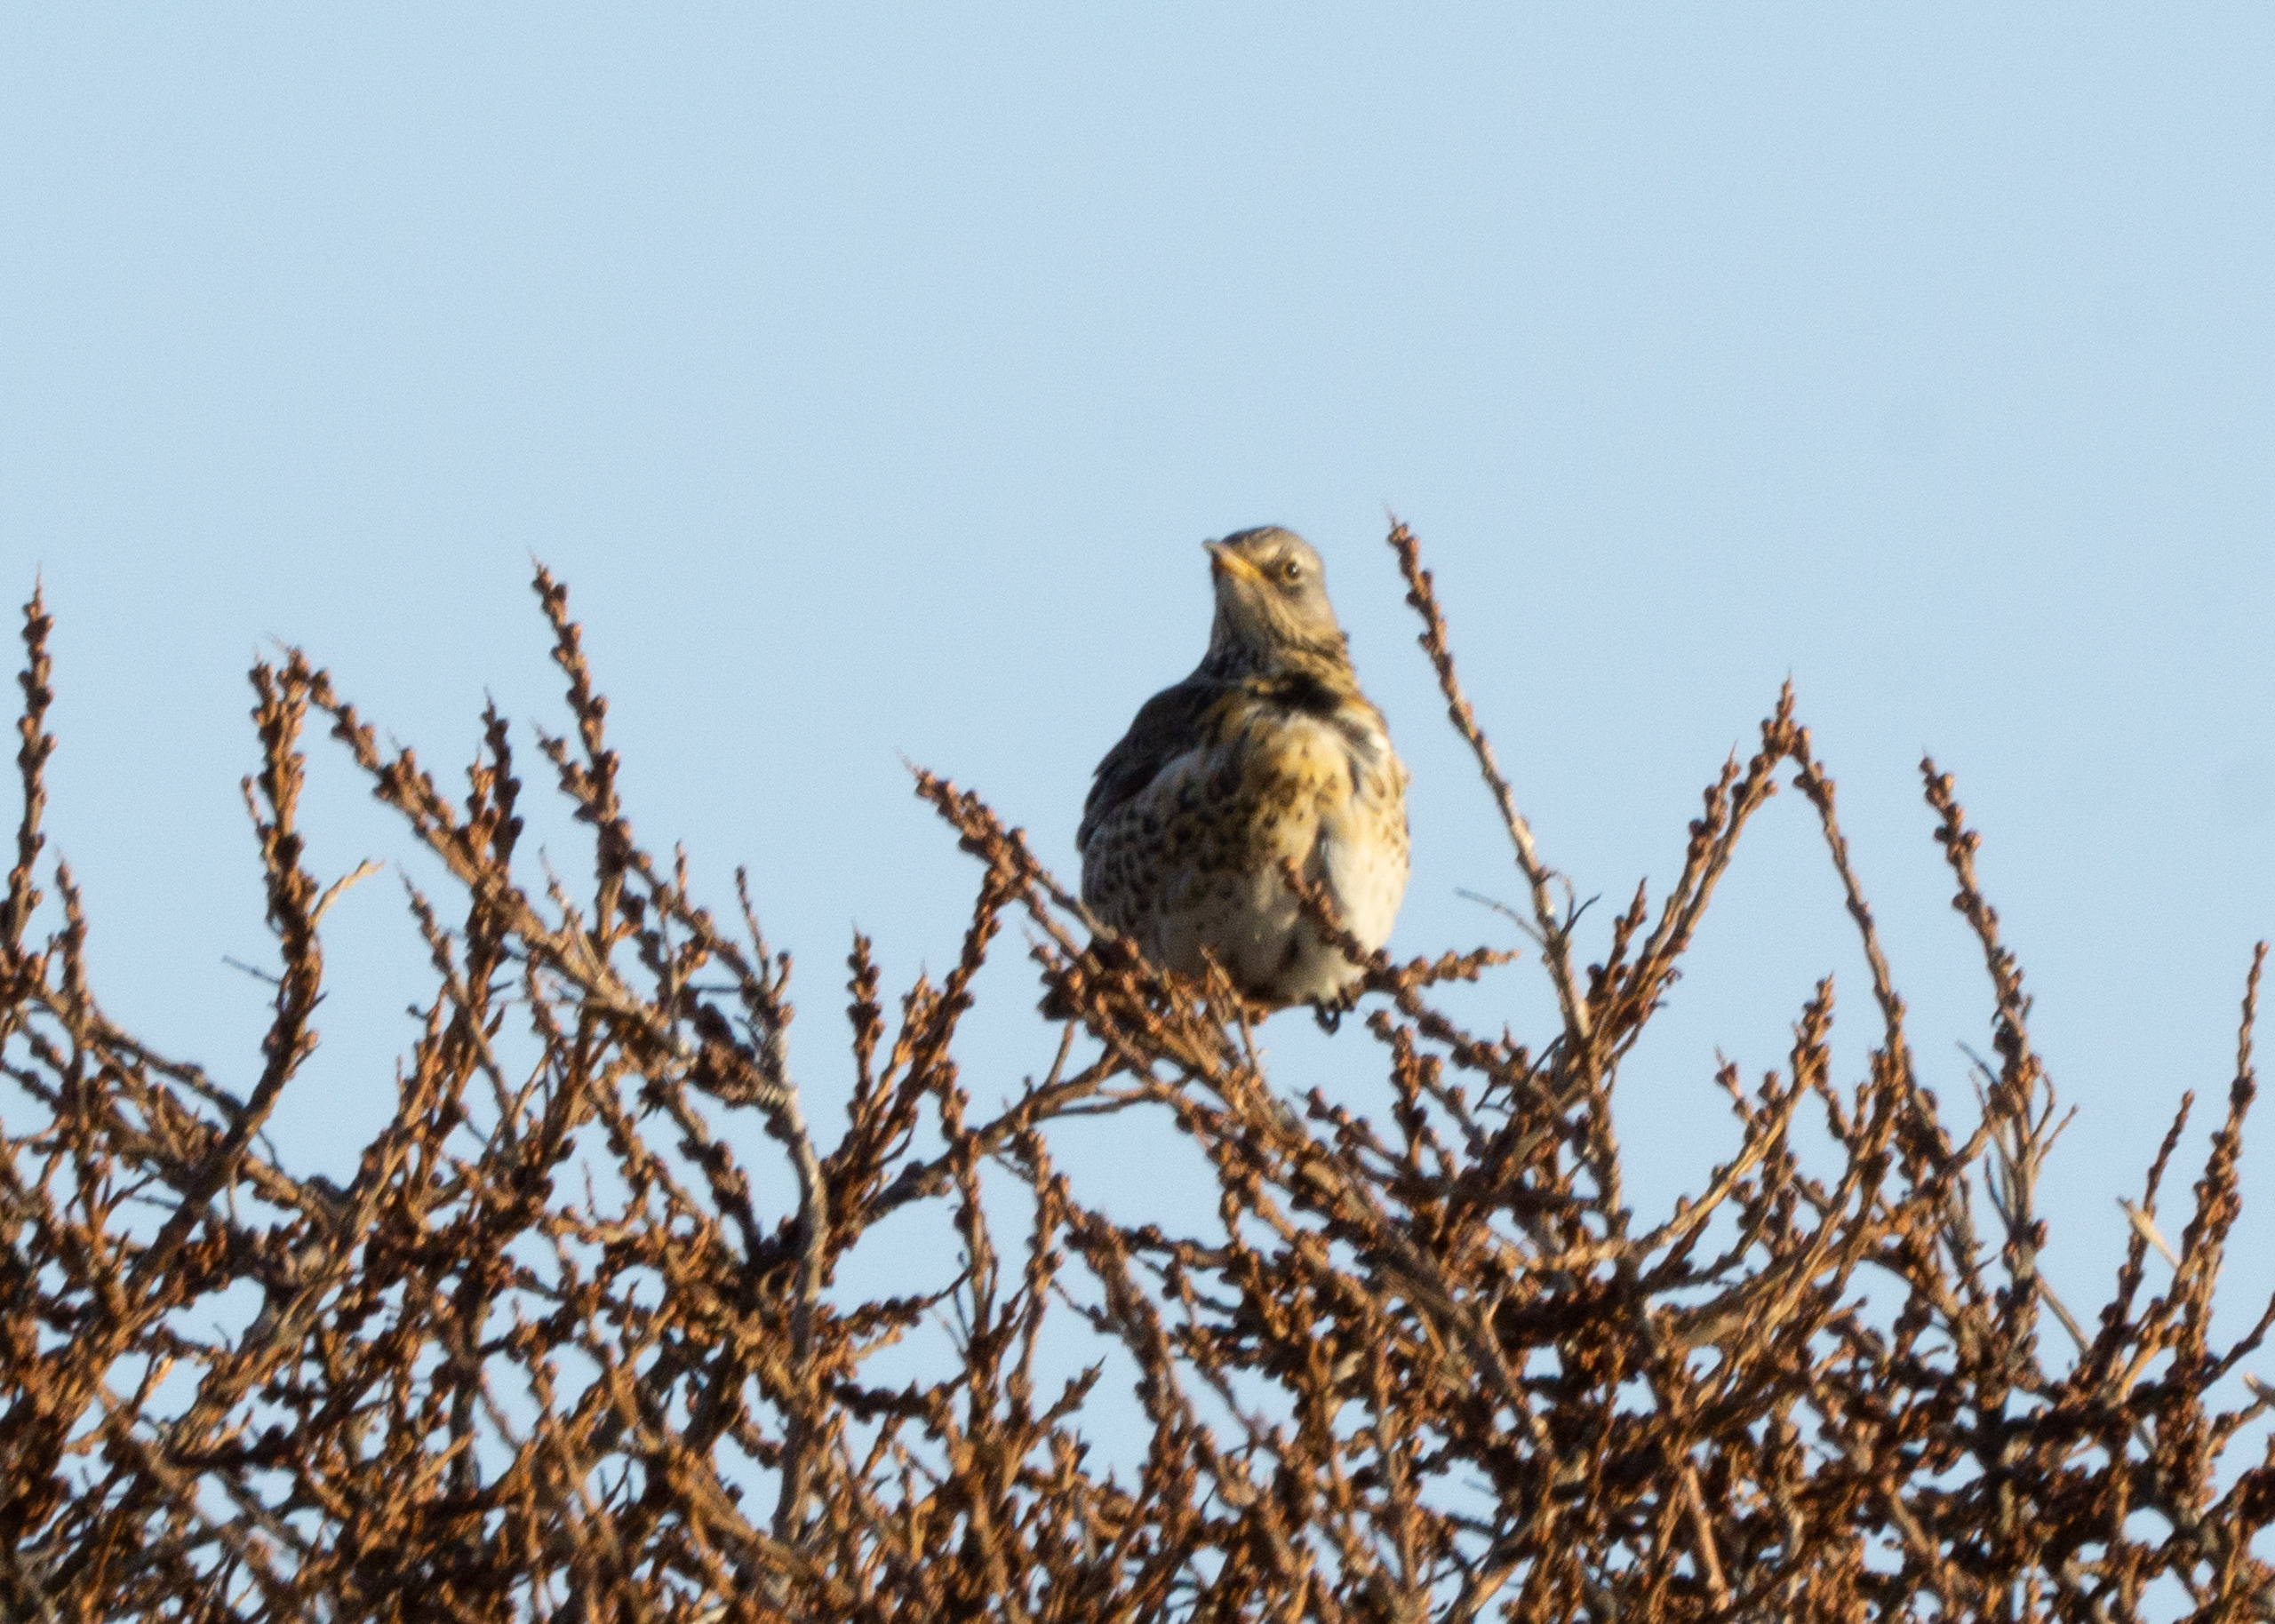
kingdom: Animalia
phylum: Chordata
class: Aves
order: Passeriformes
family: Turdidae
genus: Turdus
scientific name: Turdus pilaris
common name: Sjagger
